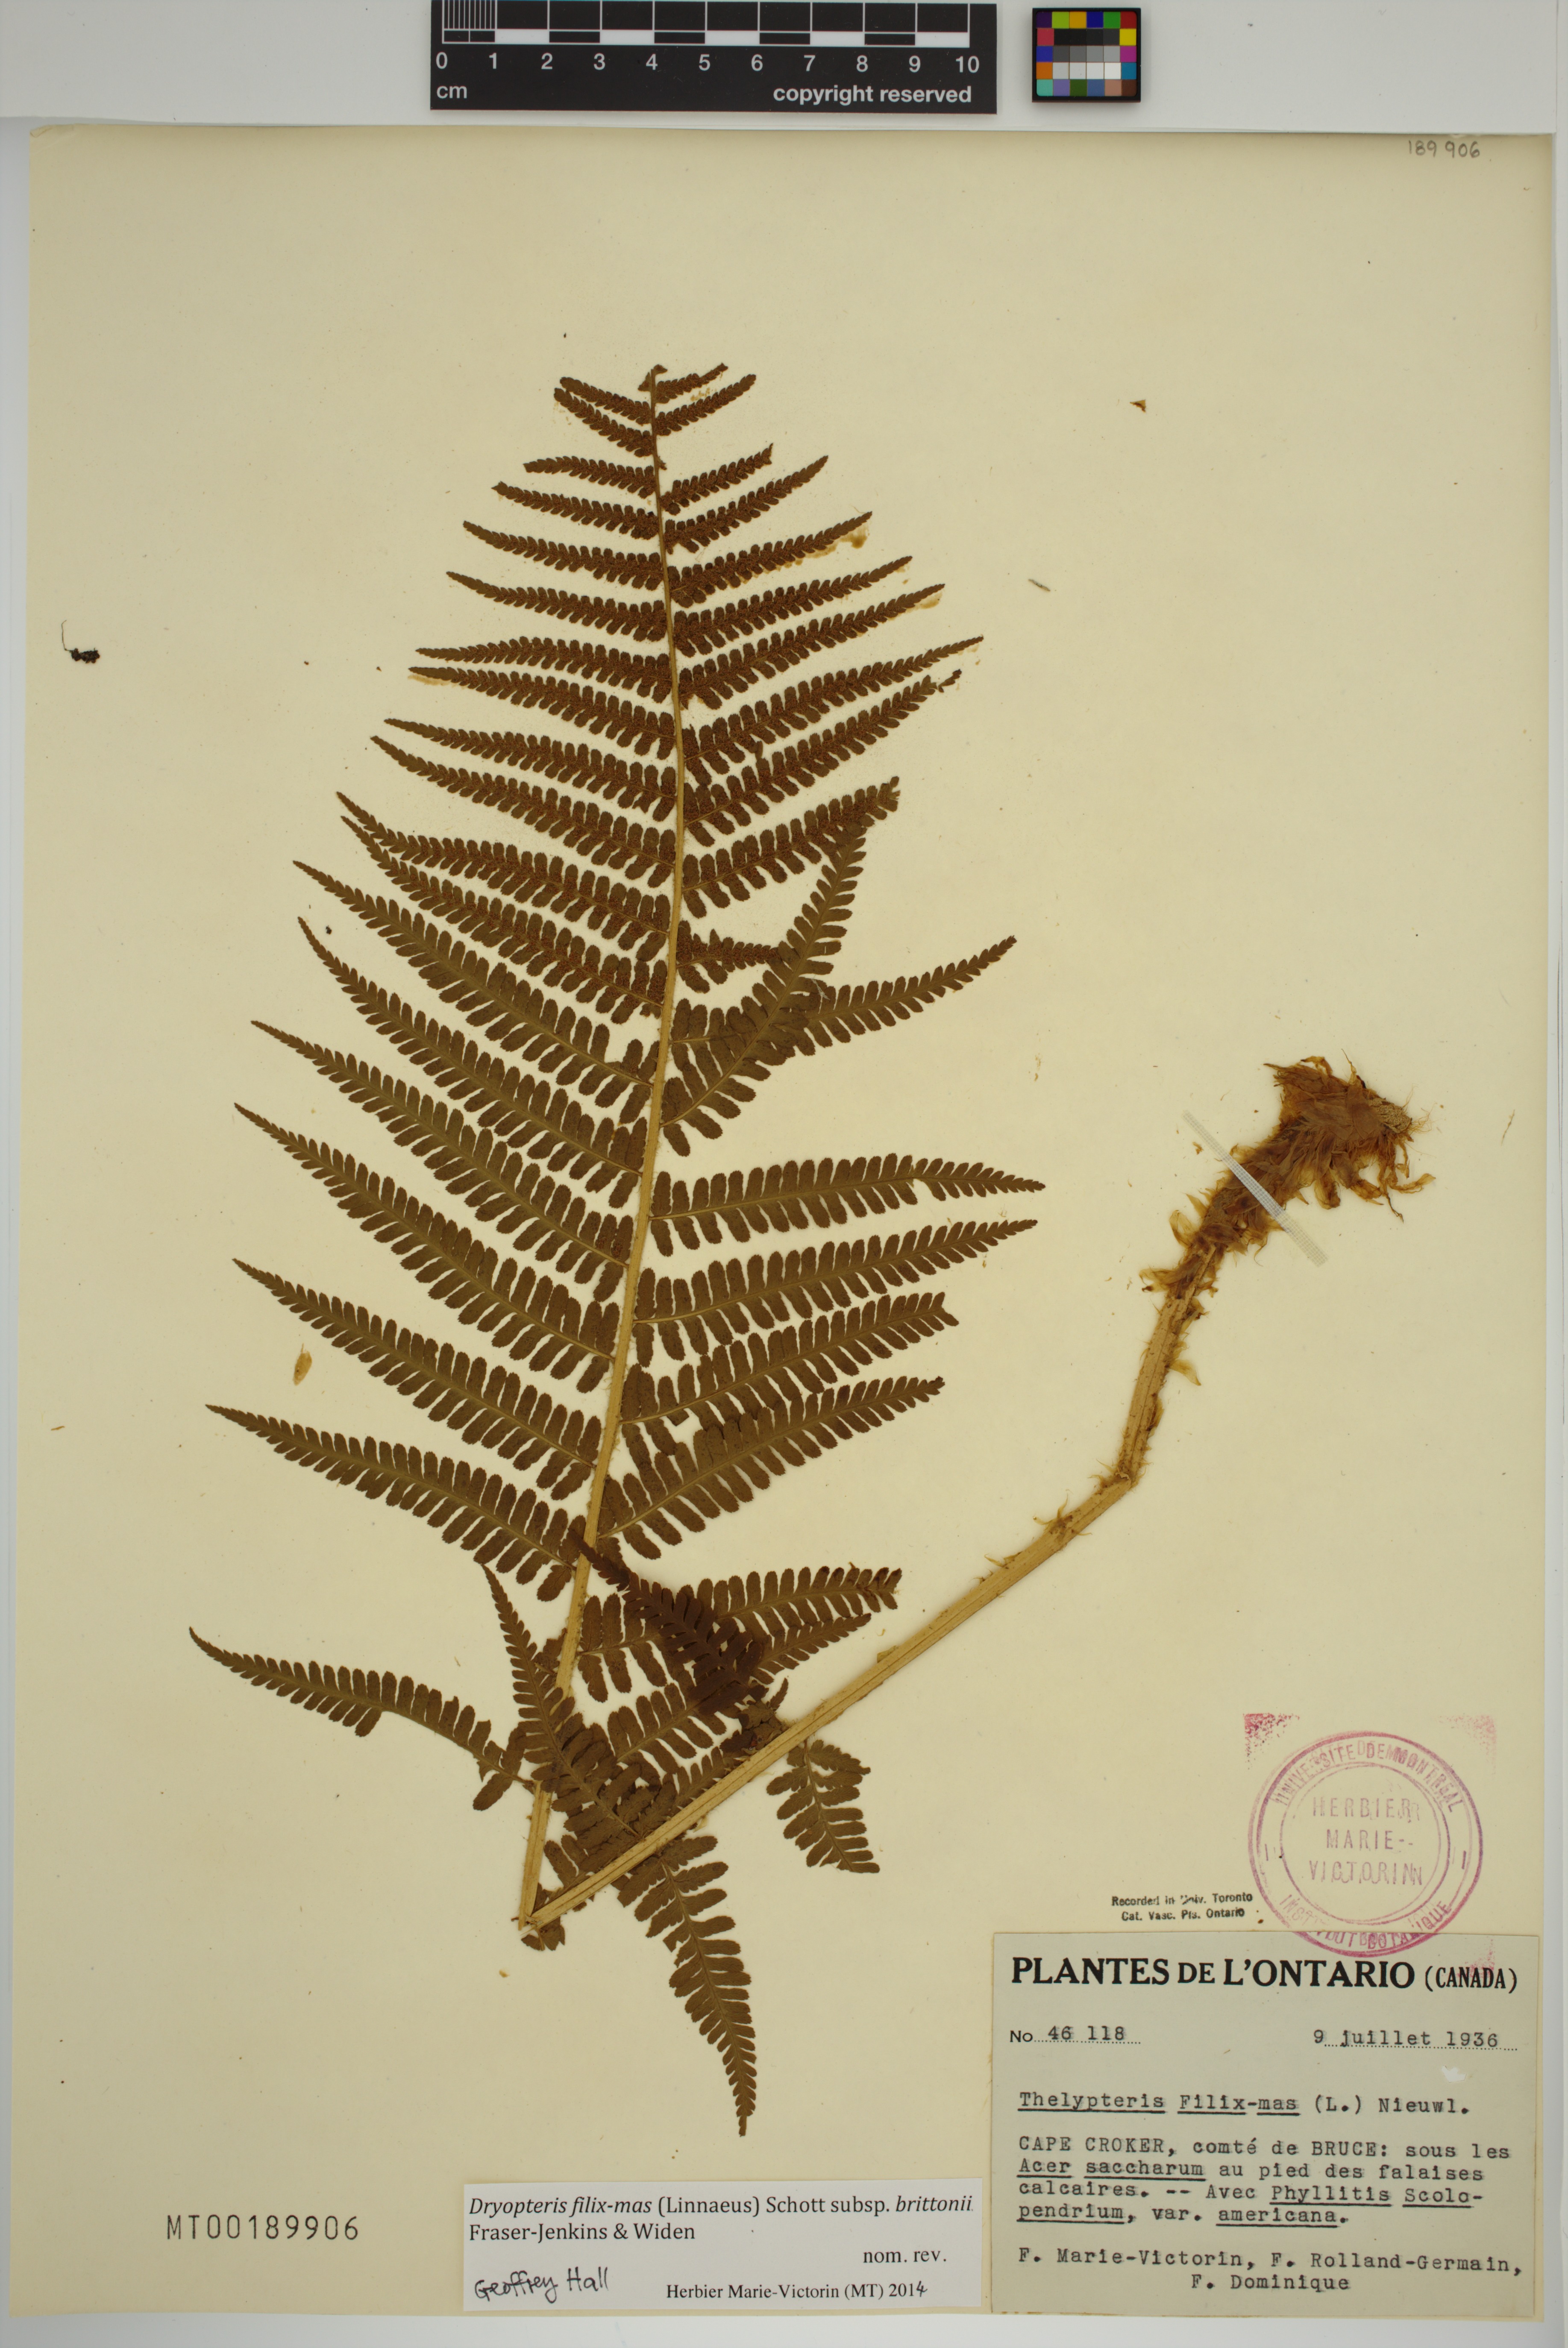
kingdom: Plantae
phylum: Tracheophyta
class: Polypodiopsida
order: Polypodiales
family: Dryopteridaceae
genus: Dryopteris
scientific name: Dryopteris filix-mas
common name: Male fern
